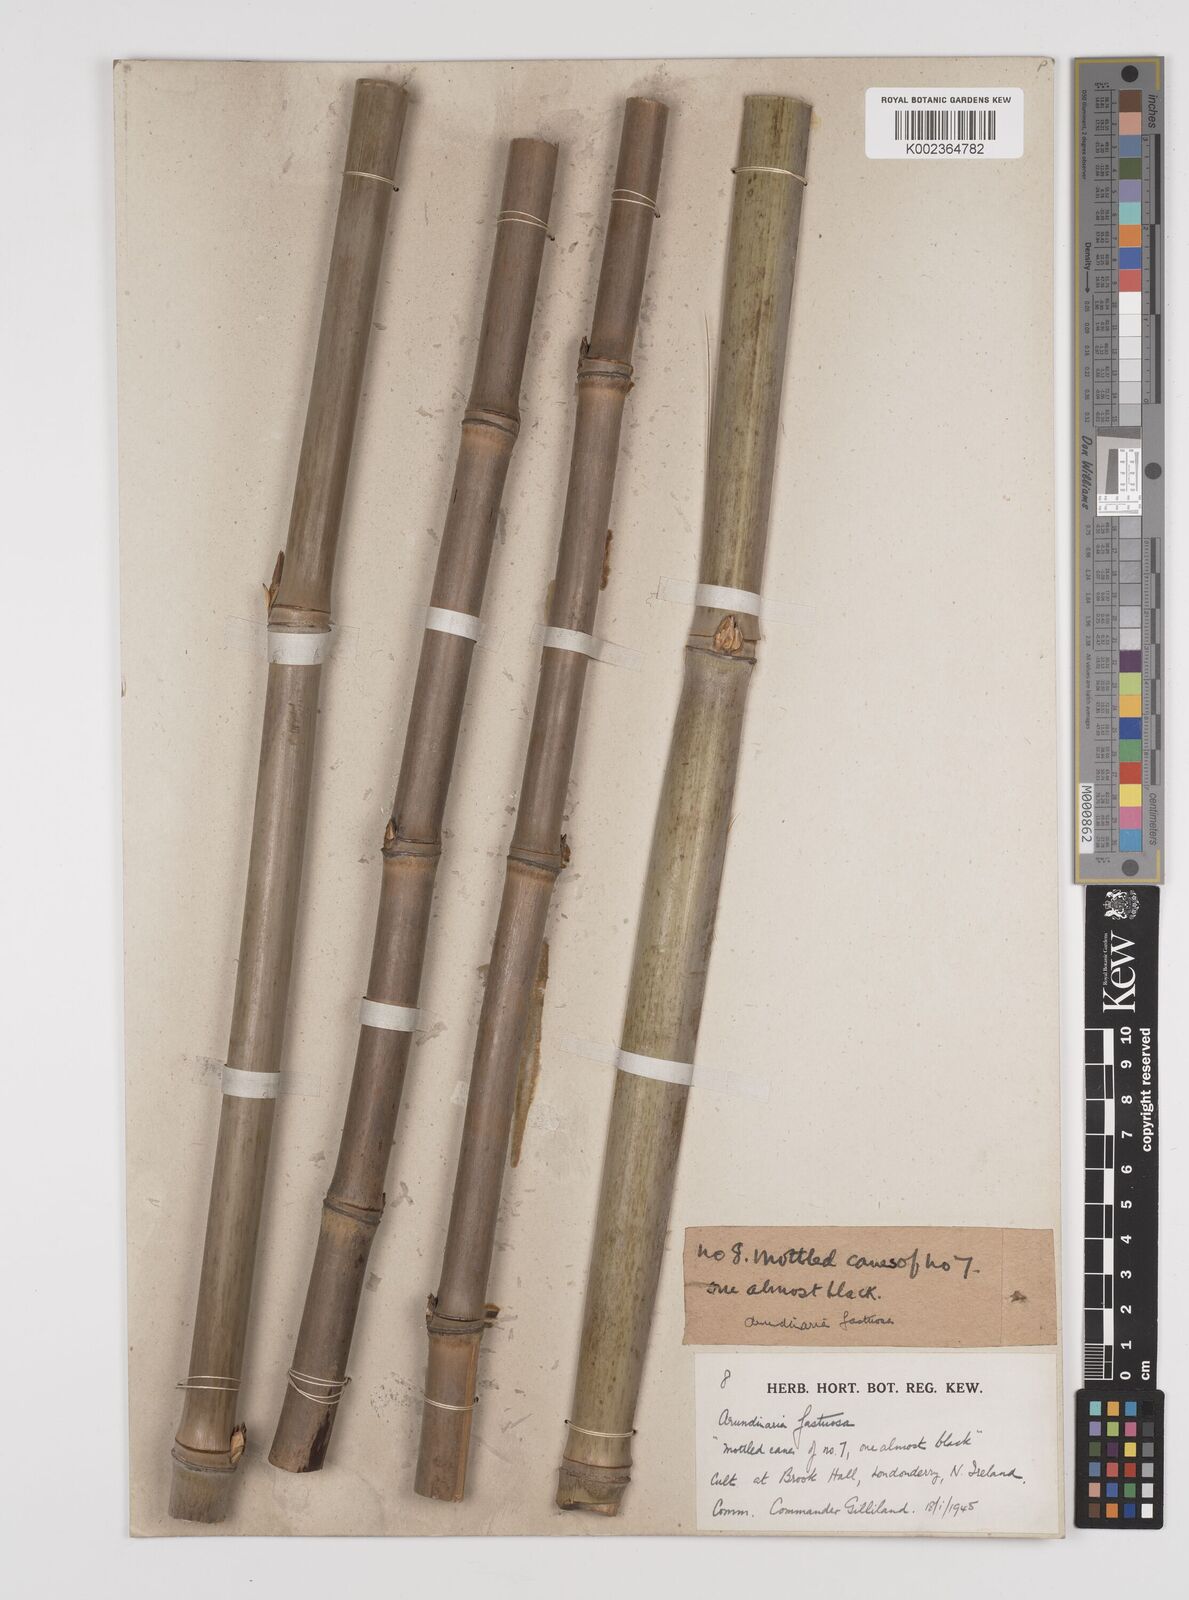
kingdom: Plantae
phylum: Tracheophyta
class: Liliopsida
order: Poales
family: Poaceae
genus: Semiarundinaria
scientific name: Semiarundinaria
